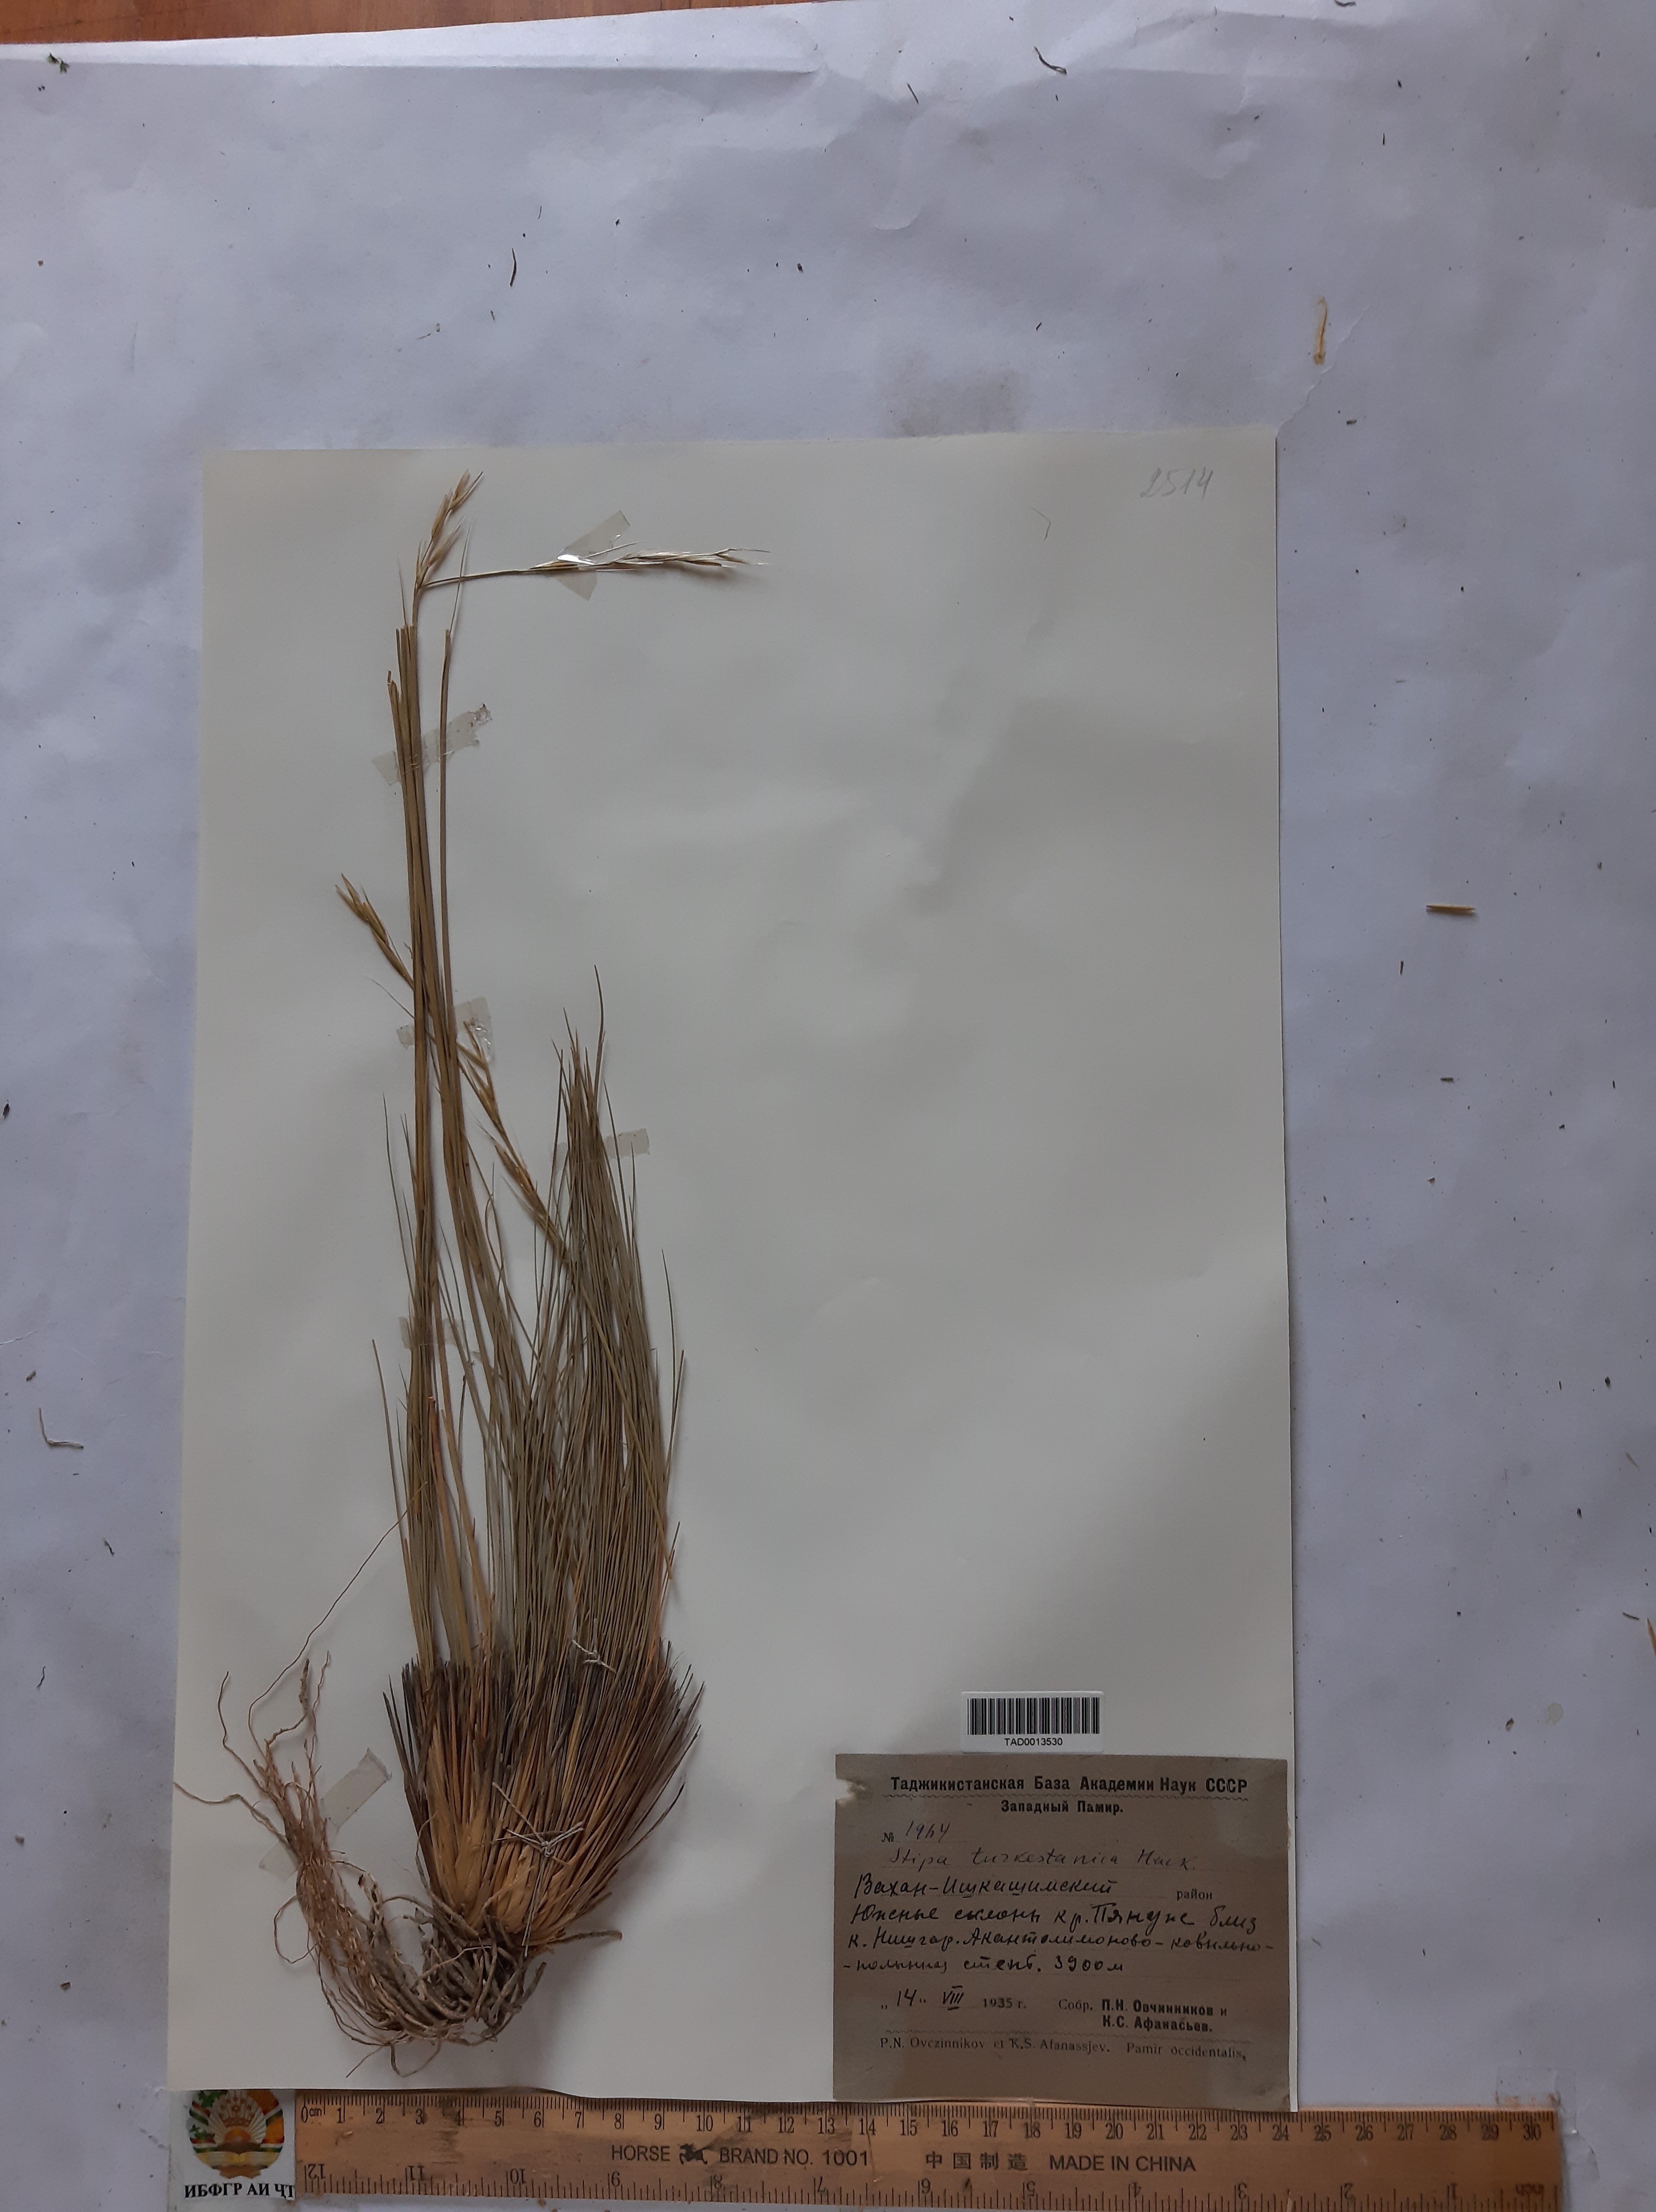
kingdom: Plantae
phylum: Tracheophyta
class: Liliopsida
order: Poales
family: Poaceae
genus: Stipa
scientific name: Stipa turkestanica
